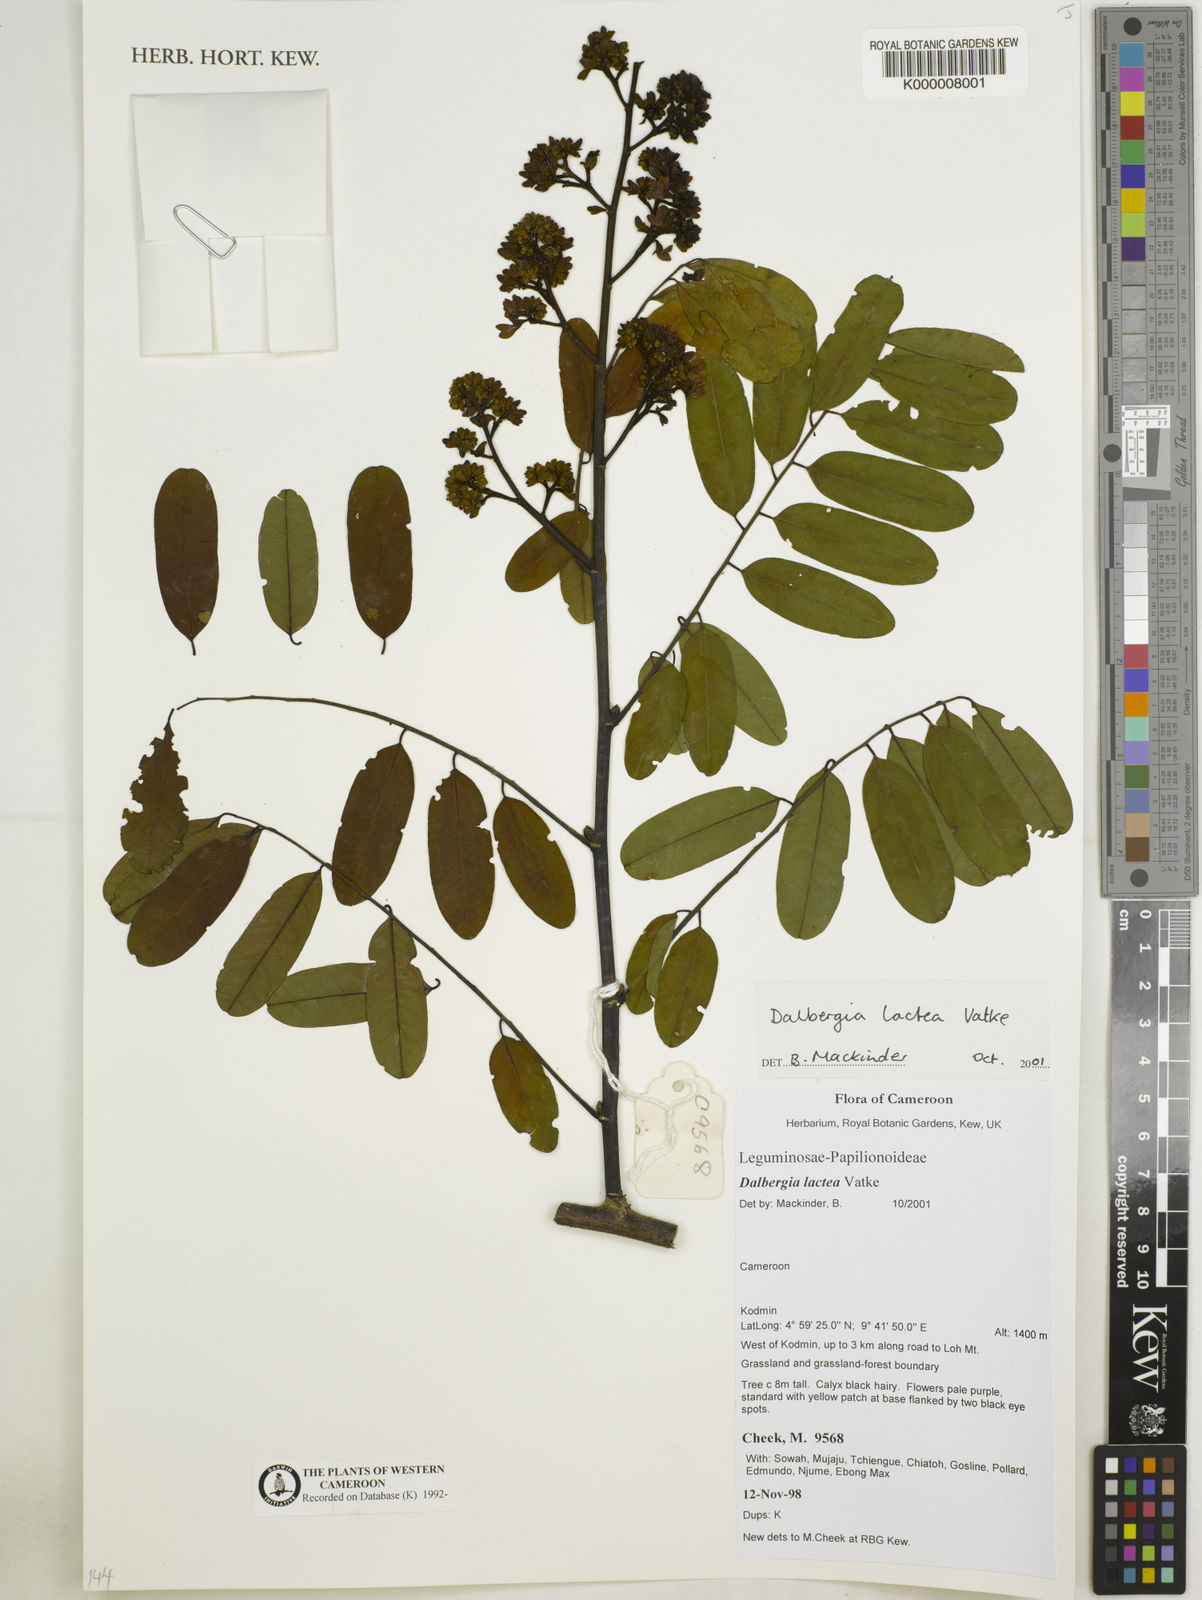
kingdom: Plantae
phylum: Tracheophyta
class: Magnoliopsida
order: Fabales
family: Fabaceae
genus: Dalbergia
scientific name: Dalbergia lactea
